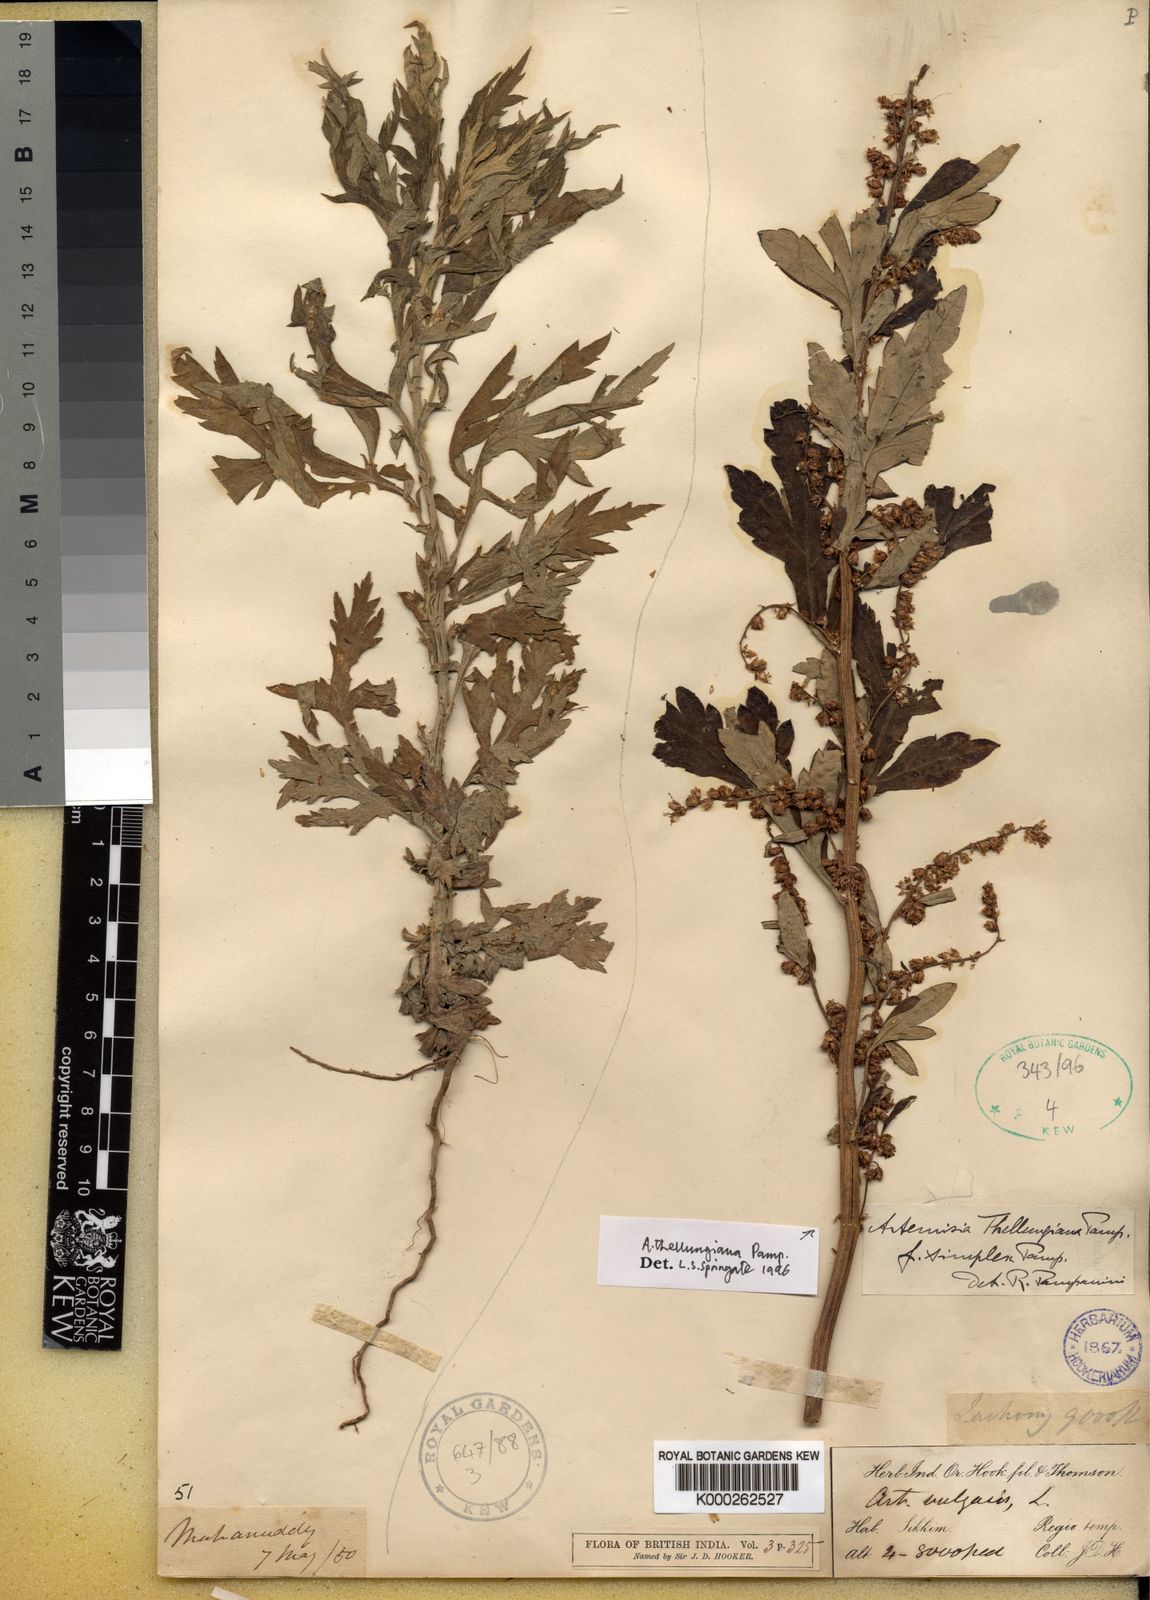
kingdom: Plantae
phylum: Tracheophyta
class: Magnoliopsida
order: Asterales
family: Asteraceae
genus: Artemisia
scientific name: Artemisia thellungiana
